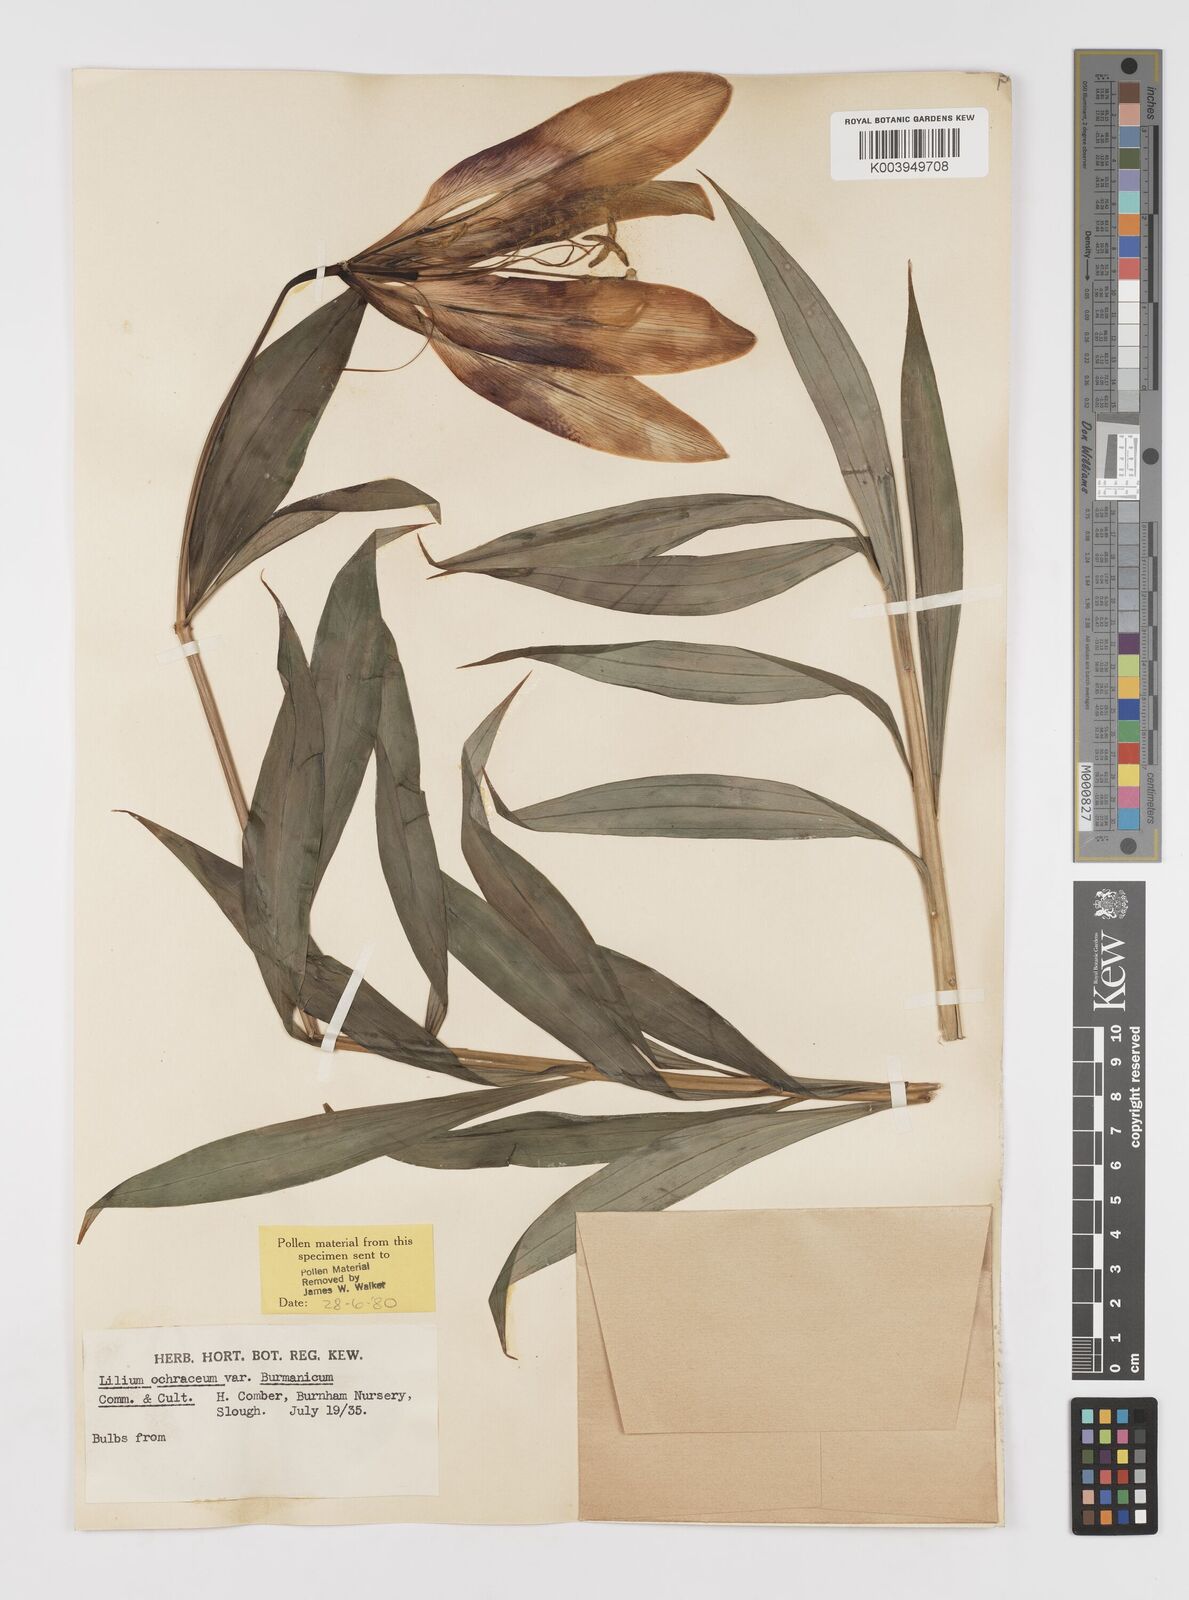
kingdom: Plantae
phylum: Tracheophyta
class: Liliopsida
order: Liliales
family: Liliaceae
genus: Lilium
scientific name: Lilium primulinum
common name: Ochre lily
